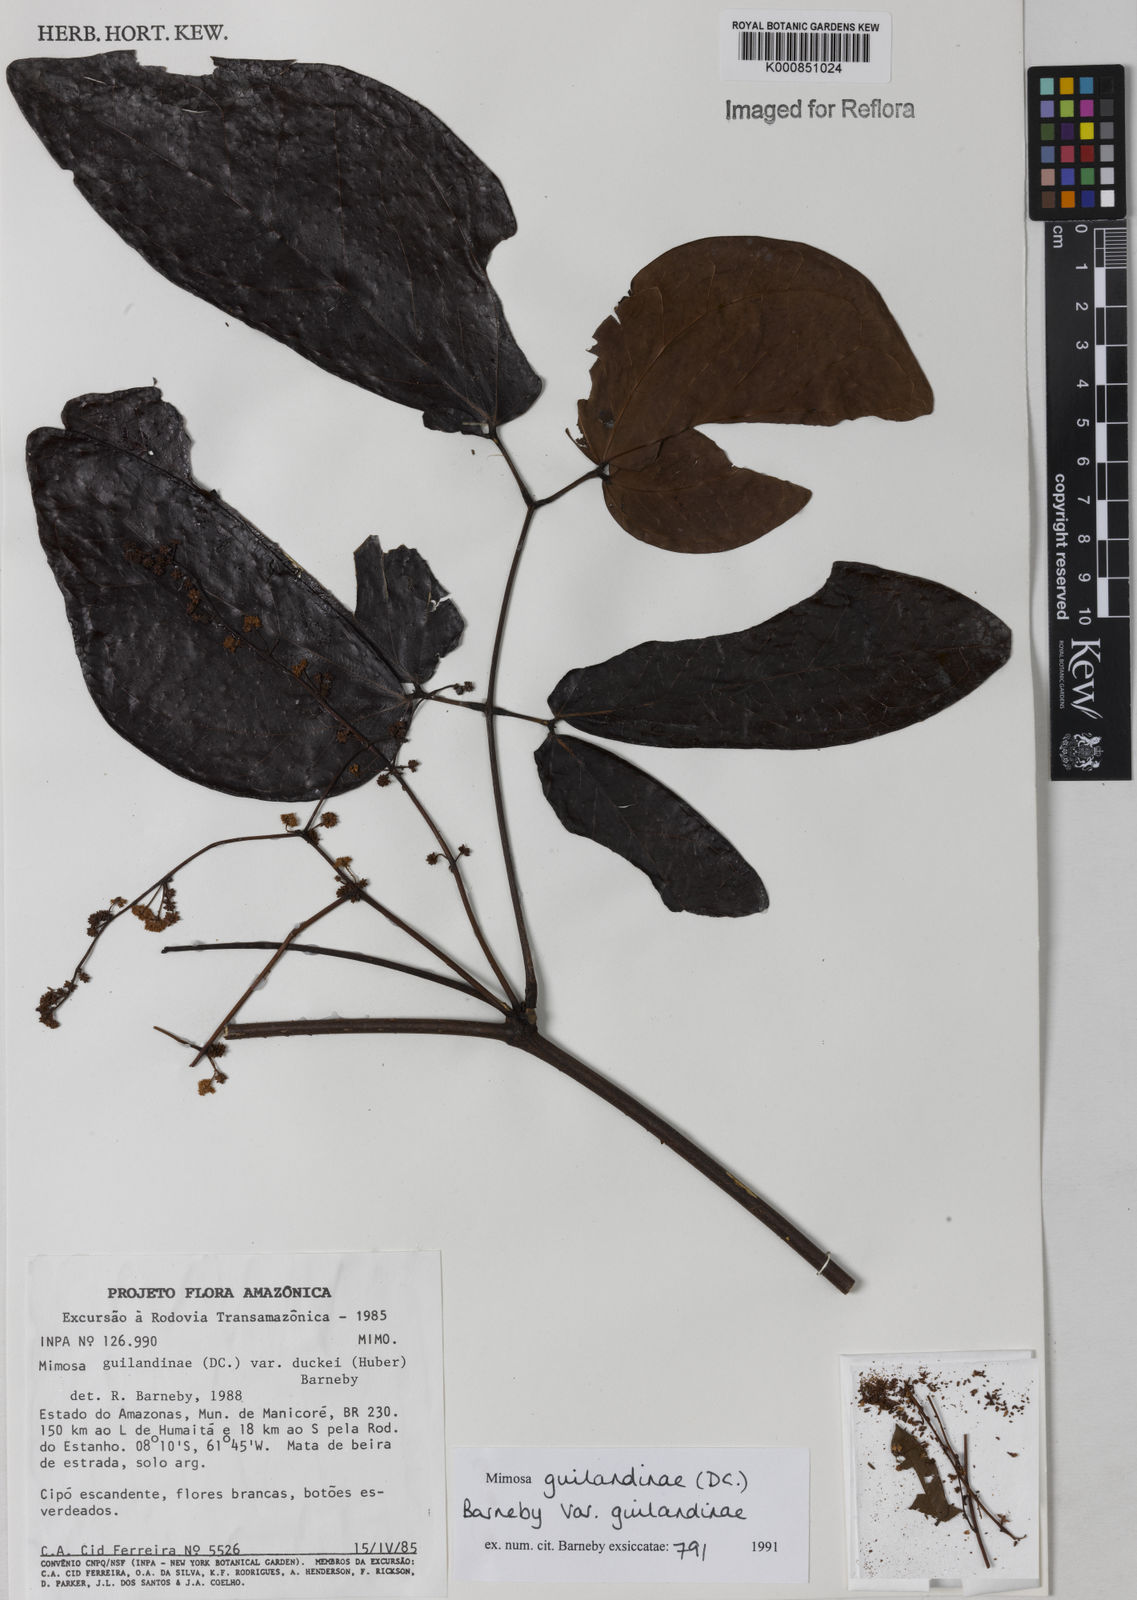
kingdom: Plantae
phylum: Tracheophyta
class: Magnoliopsida
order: Fabales
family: Fabaceae
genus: Mimosa
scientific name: Mimosa guilandinae
